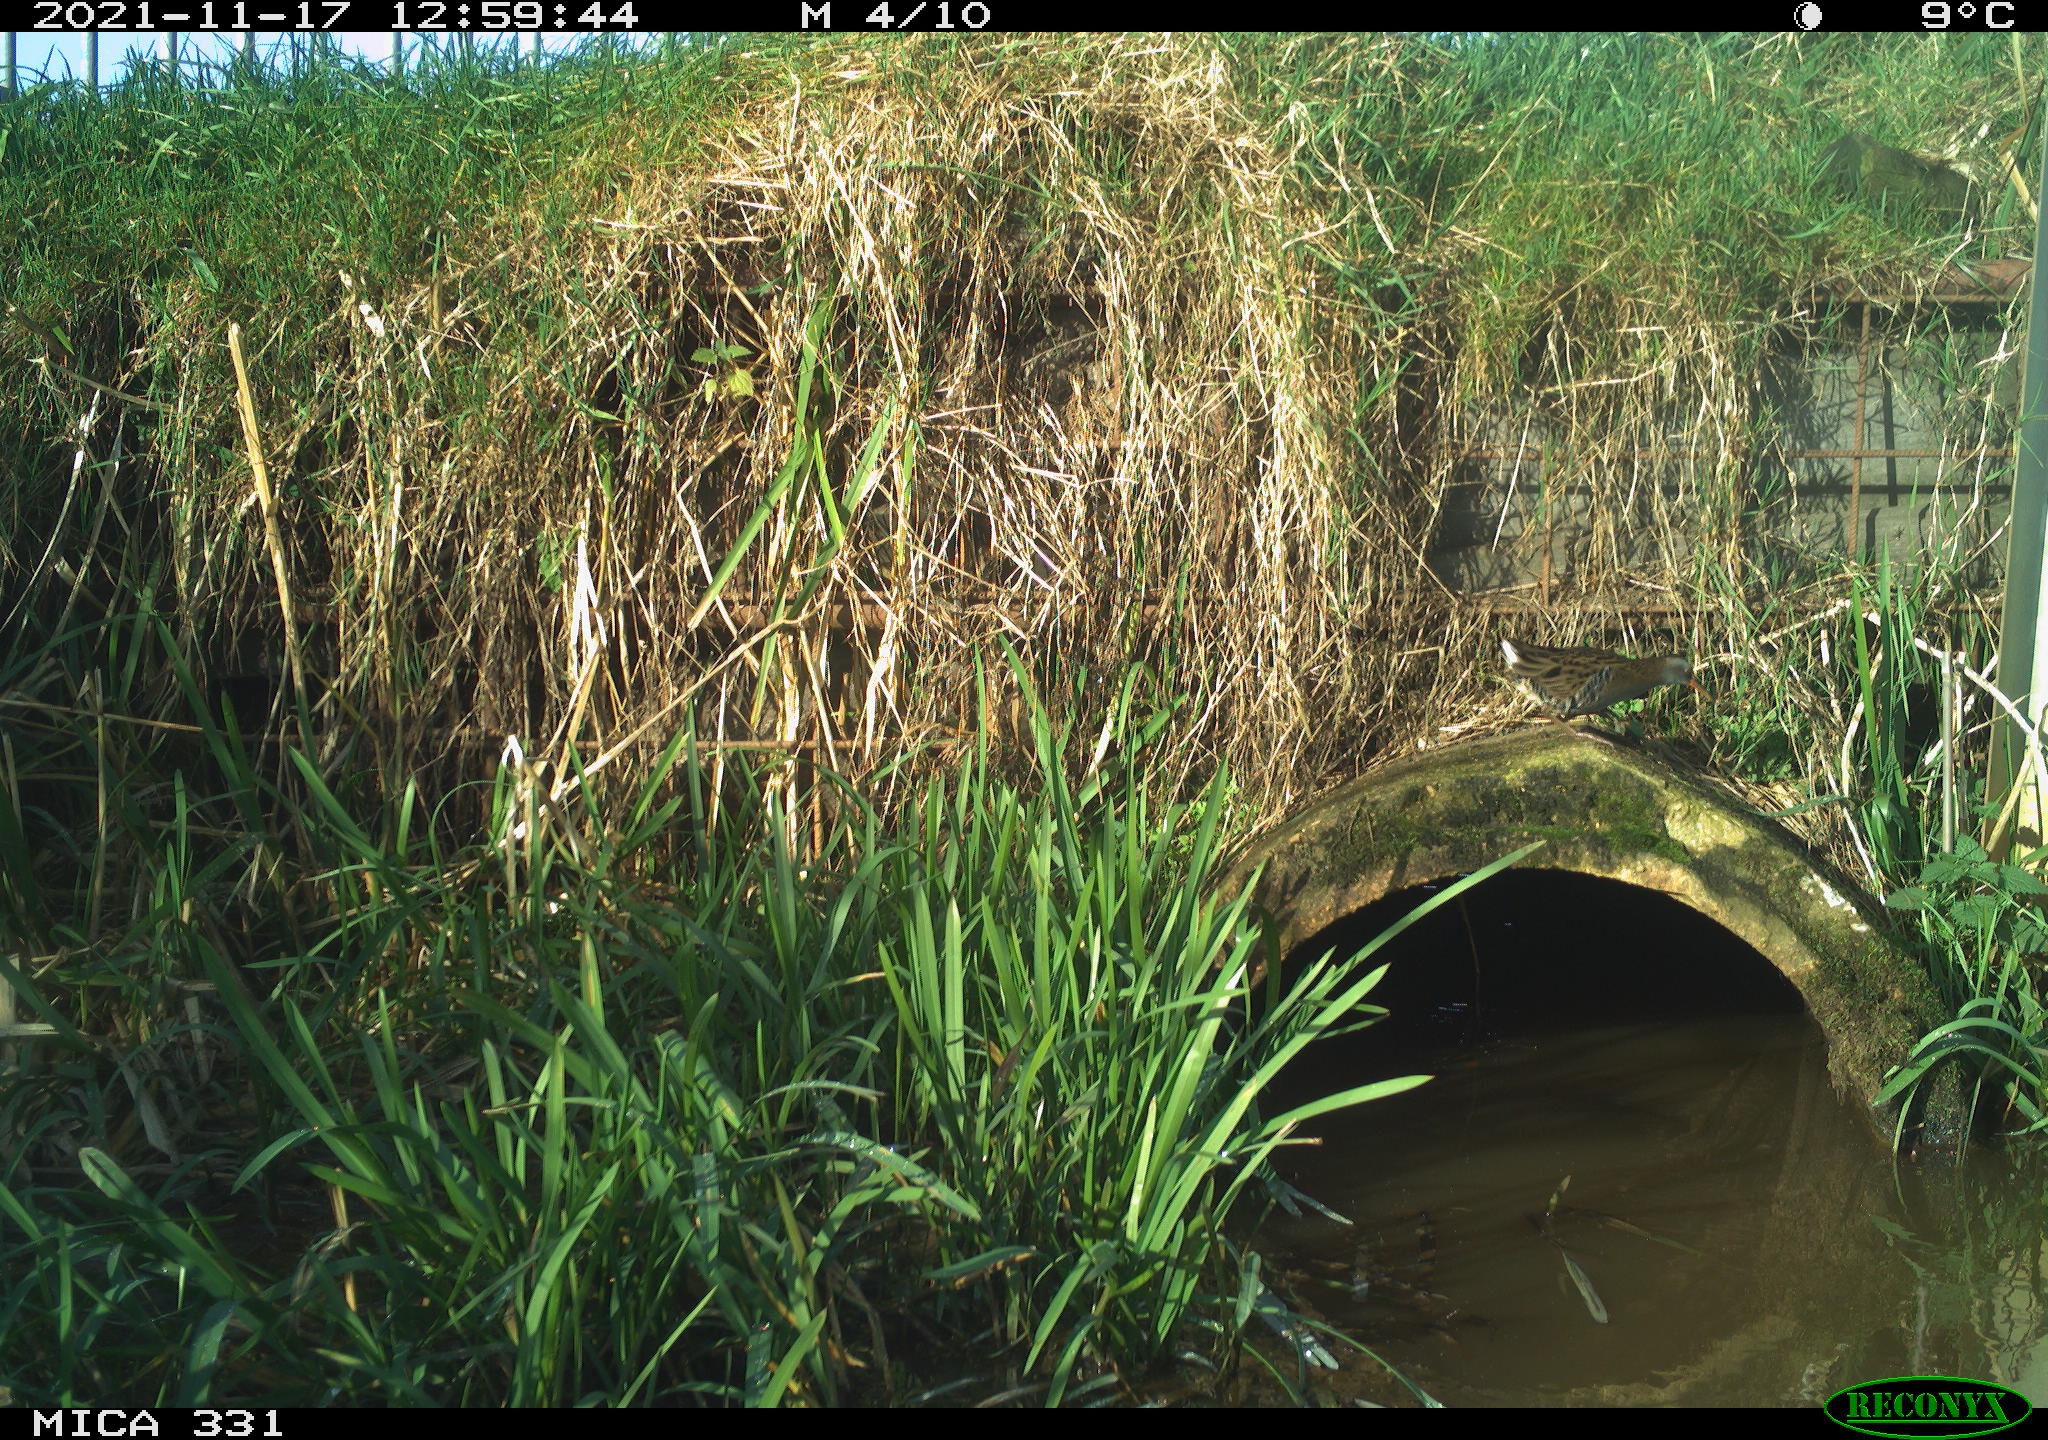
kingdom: Animalia
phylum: Chordata
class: Aves
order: Gruiformes
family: Rallidae
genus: Gallinula
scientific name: Gallinula chloropus
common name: Common moorhen
